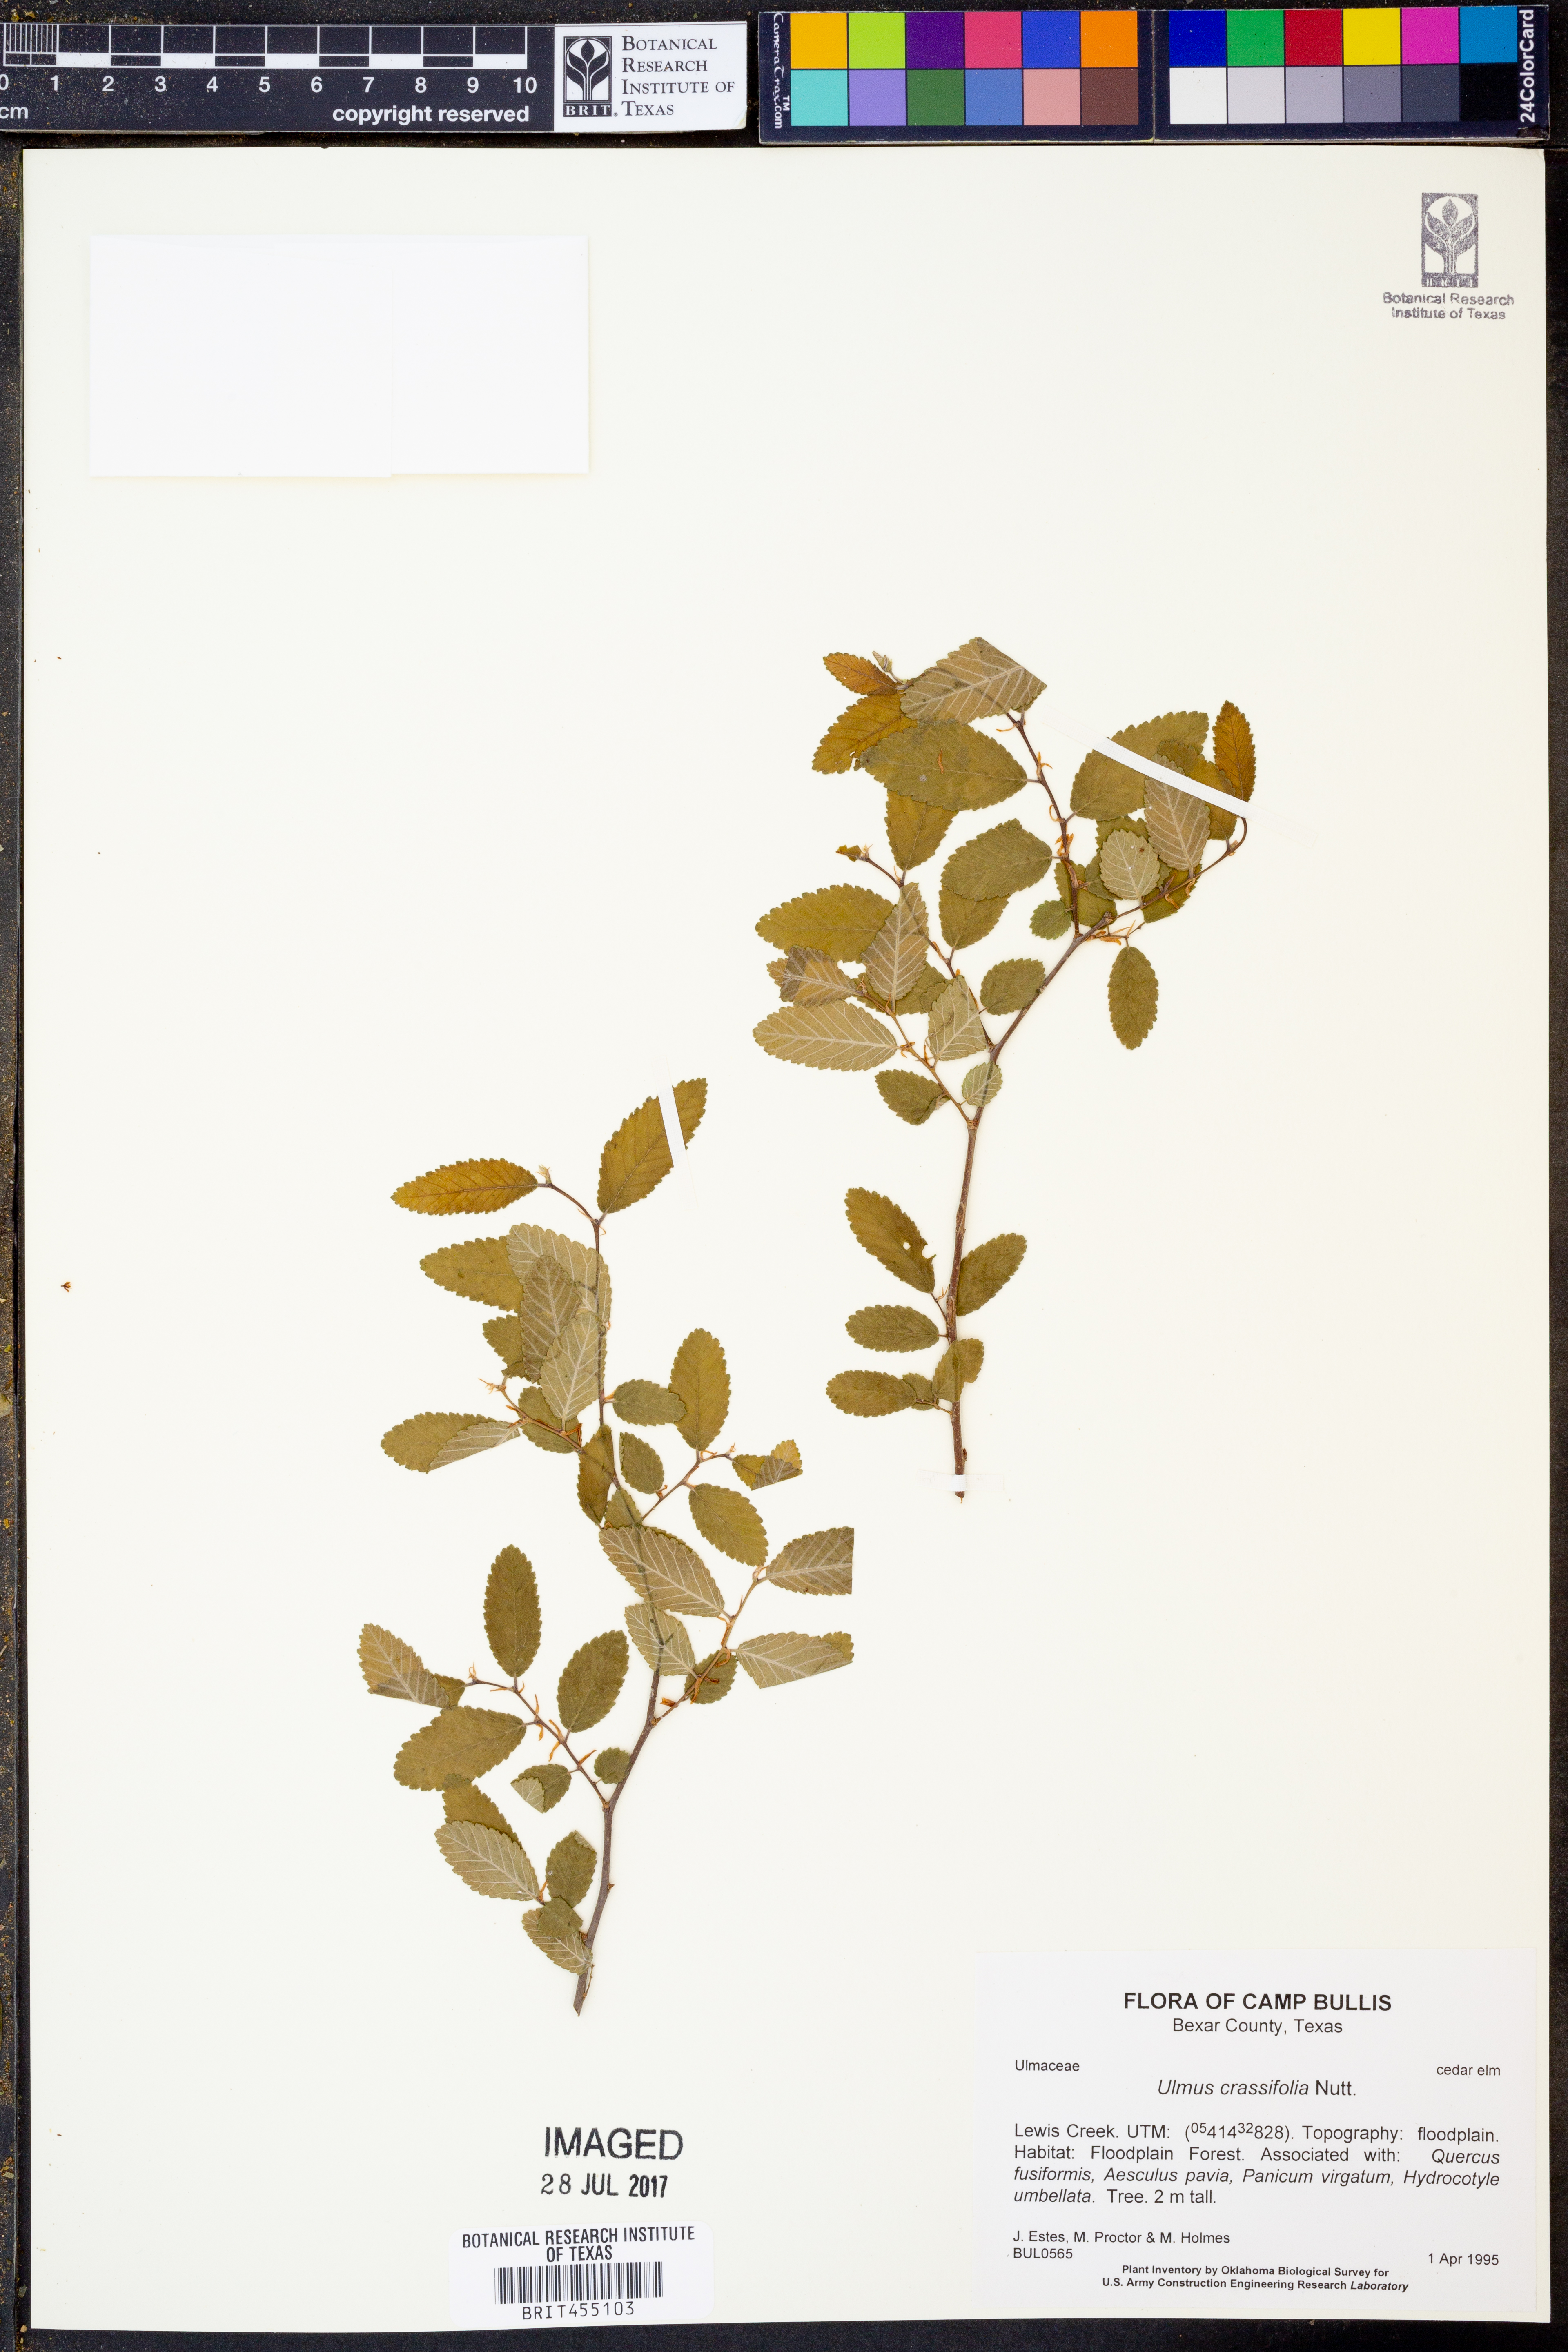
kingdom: Plantae
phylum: Tracheophyta
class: Magnoliopsida
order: Rosales
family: Ulmaceae
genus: Ulmus
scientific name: Ulmus crassifolia
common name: Basket elm
